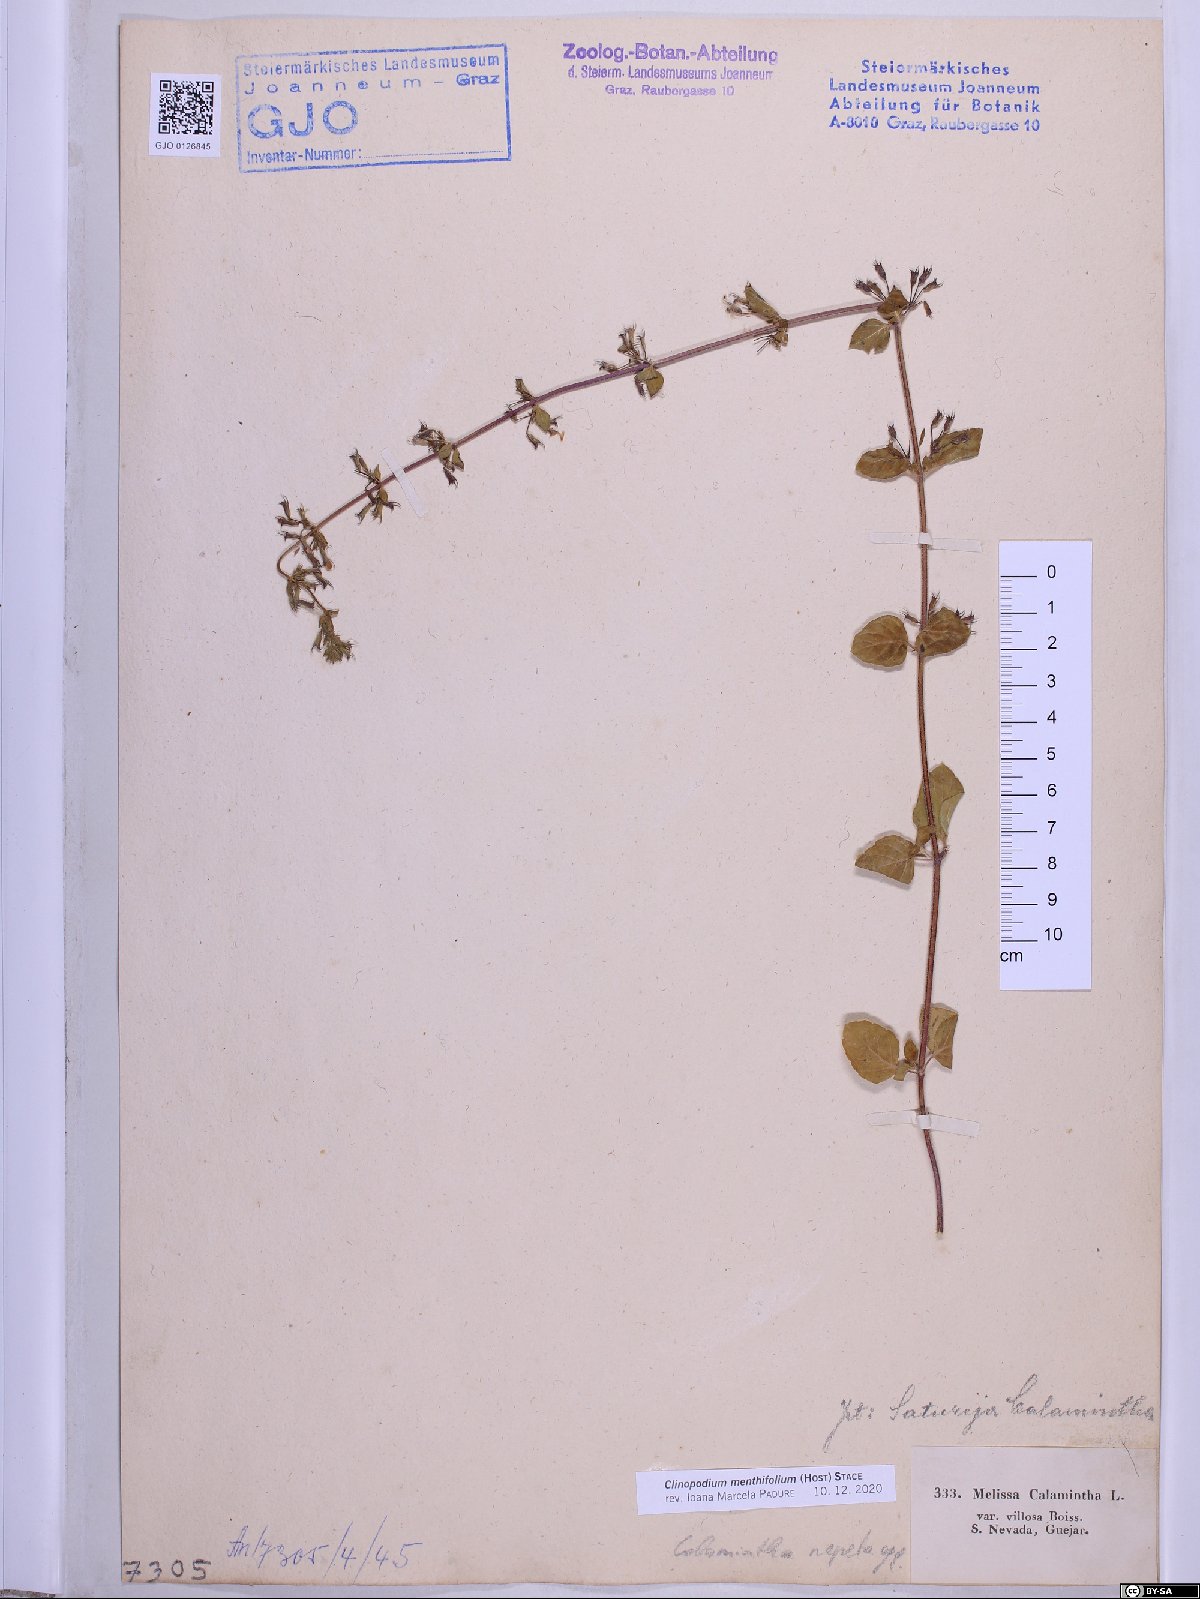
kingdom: Plantae
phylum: Tracheophyta
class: Magnoliopsida
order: Lamiales
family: Lamiaceae
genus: Clinopodium
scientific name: Clinopodium menthifolium
